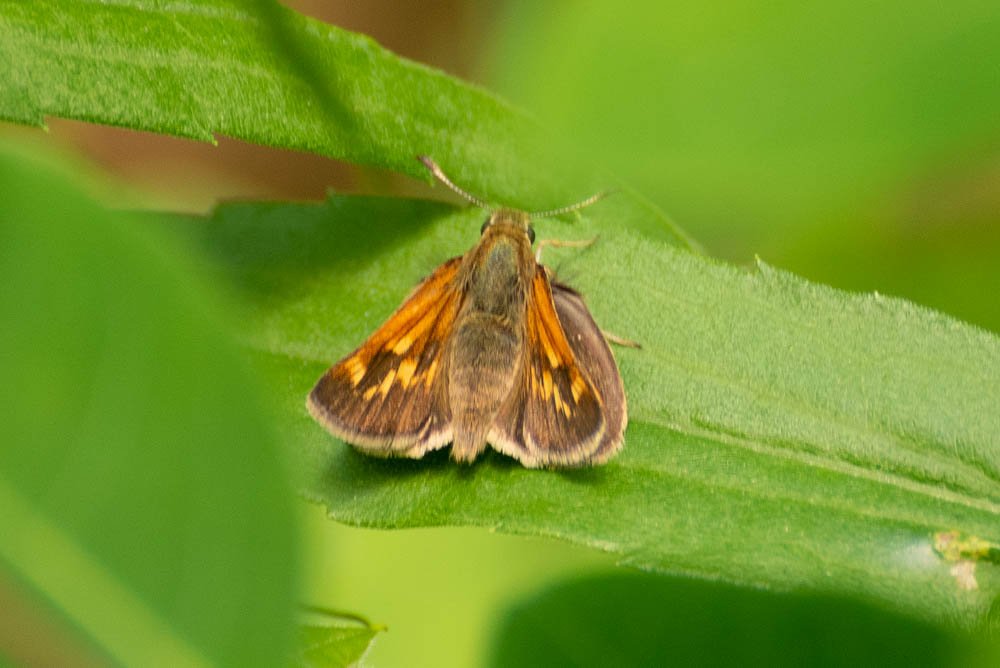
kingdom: Animalia
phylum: Arthropoda
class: Insecta
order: Lepidoptera
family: Hesperiidae
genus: Polites
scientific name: Polites
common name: Long Dash Skipper
